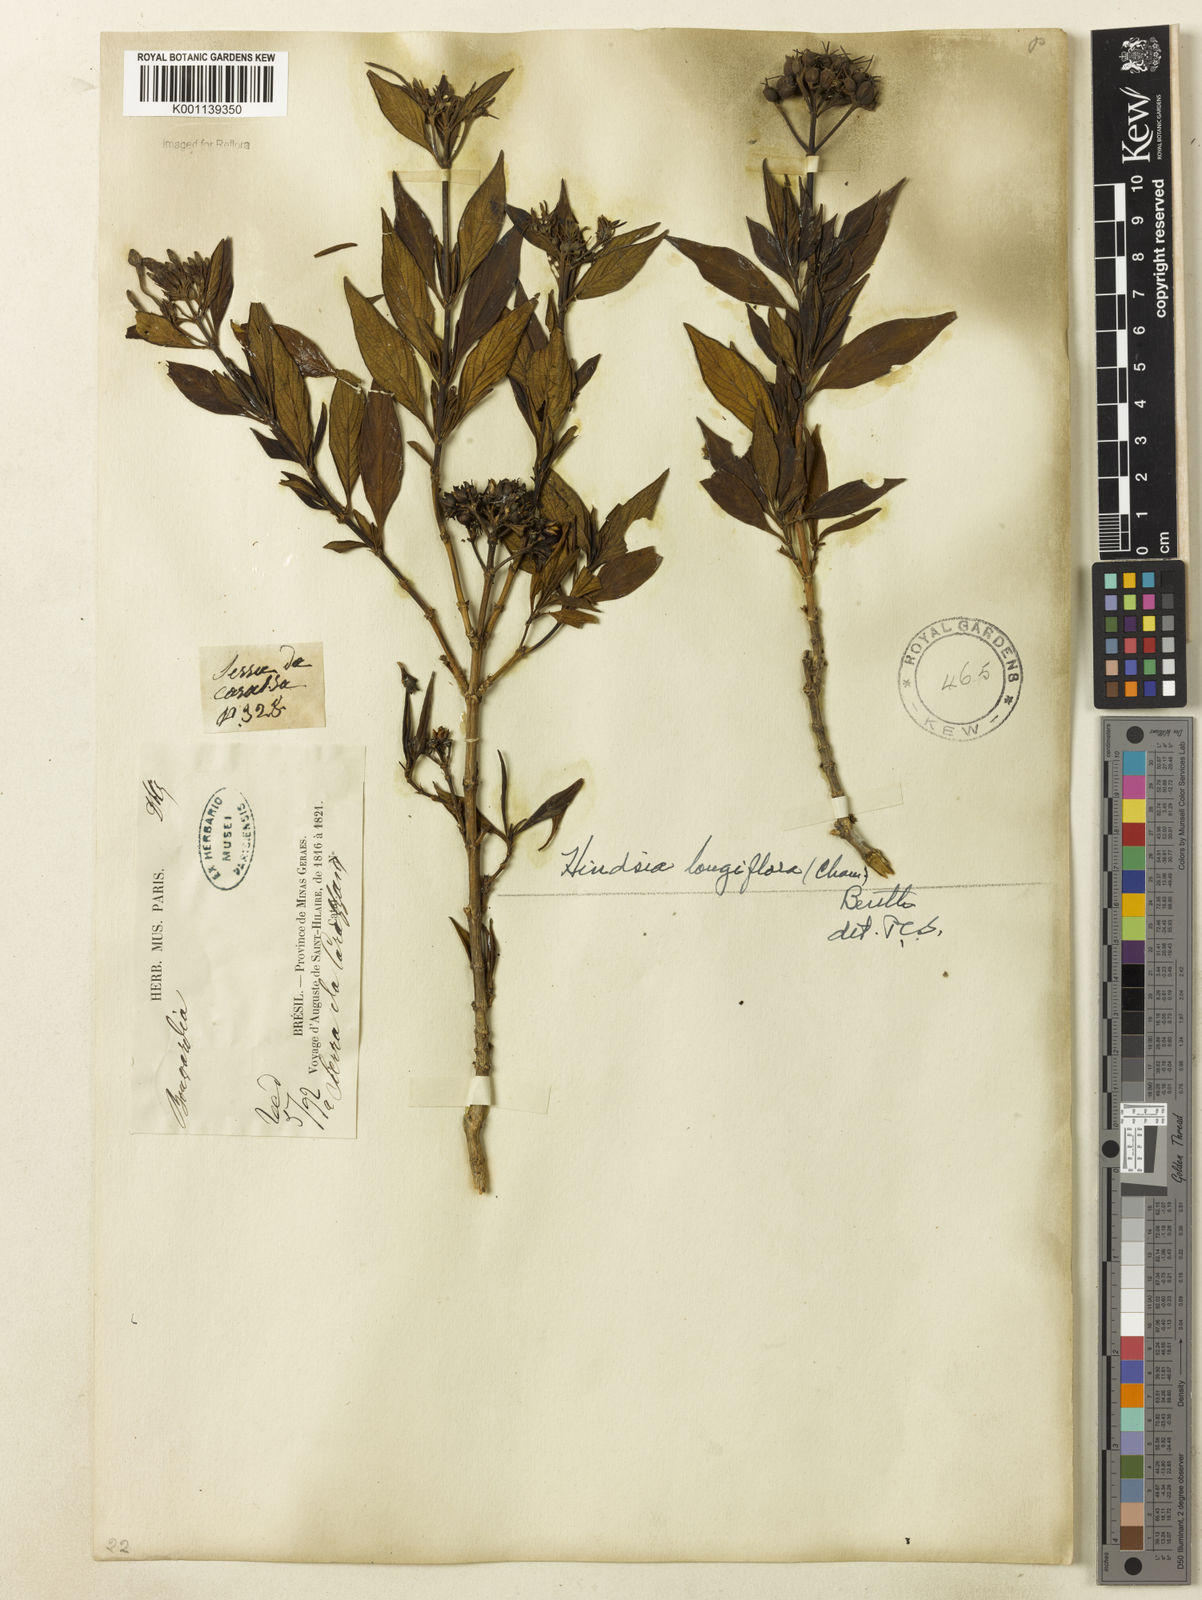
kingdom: Plantae
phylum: Tracheophyta
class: Magnoliopsida
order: Gentianales
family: Rubiaceae
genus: Hindsia
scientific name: Hindsia
